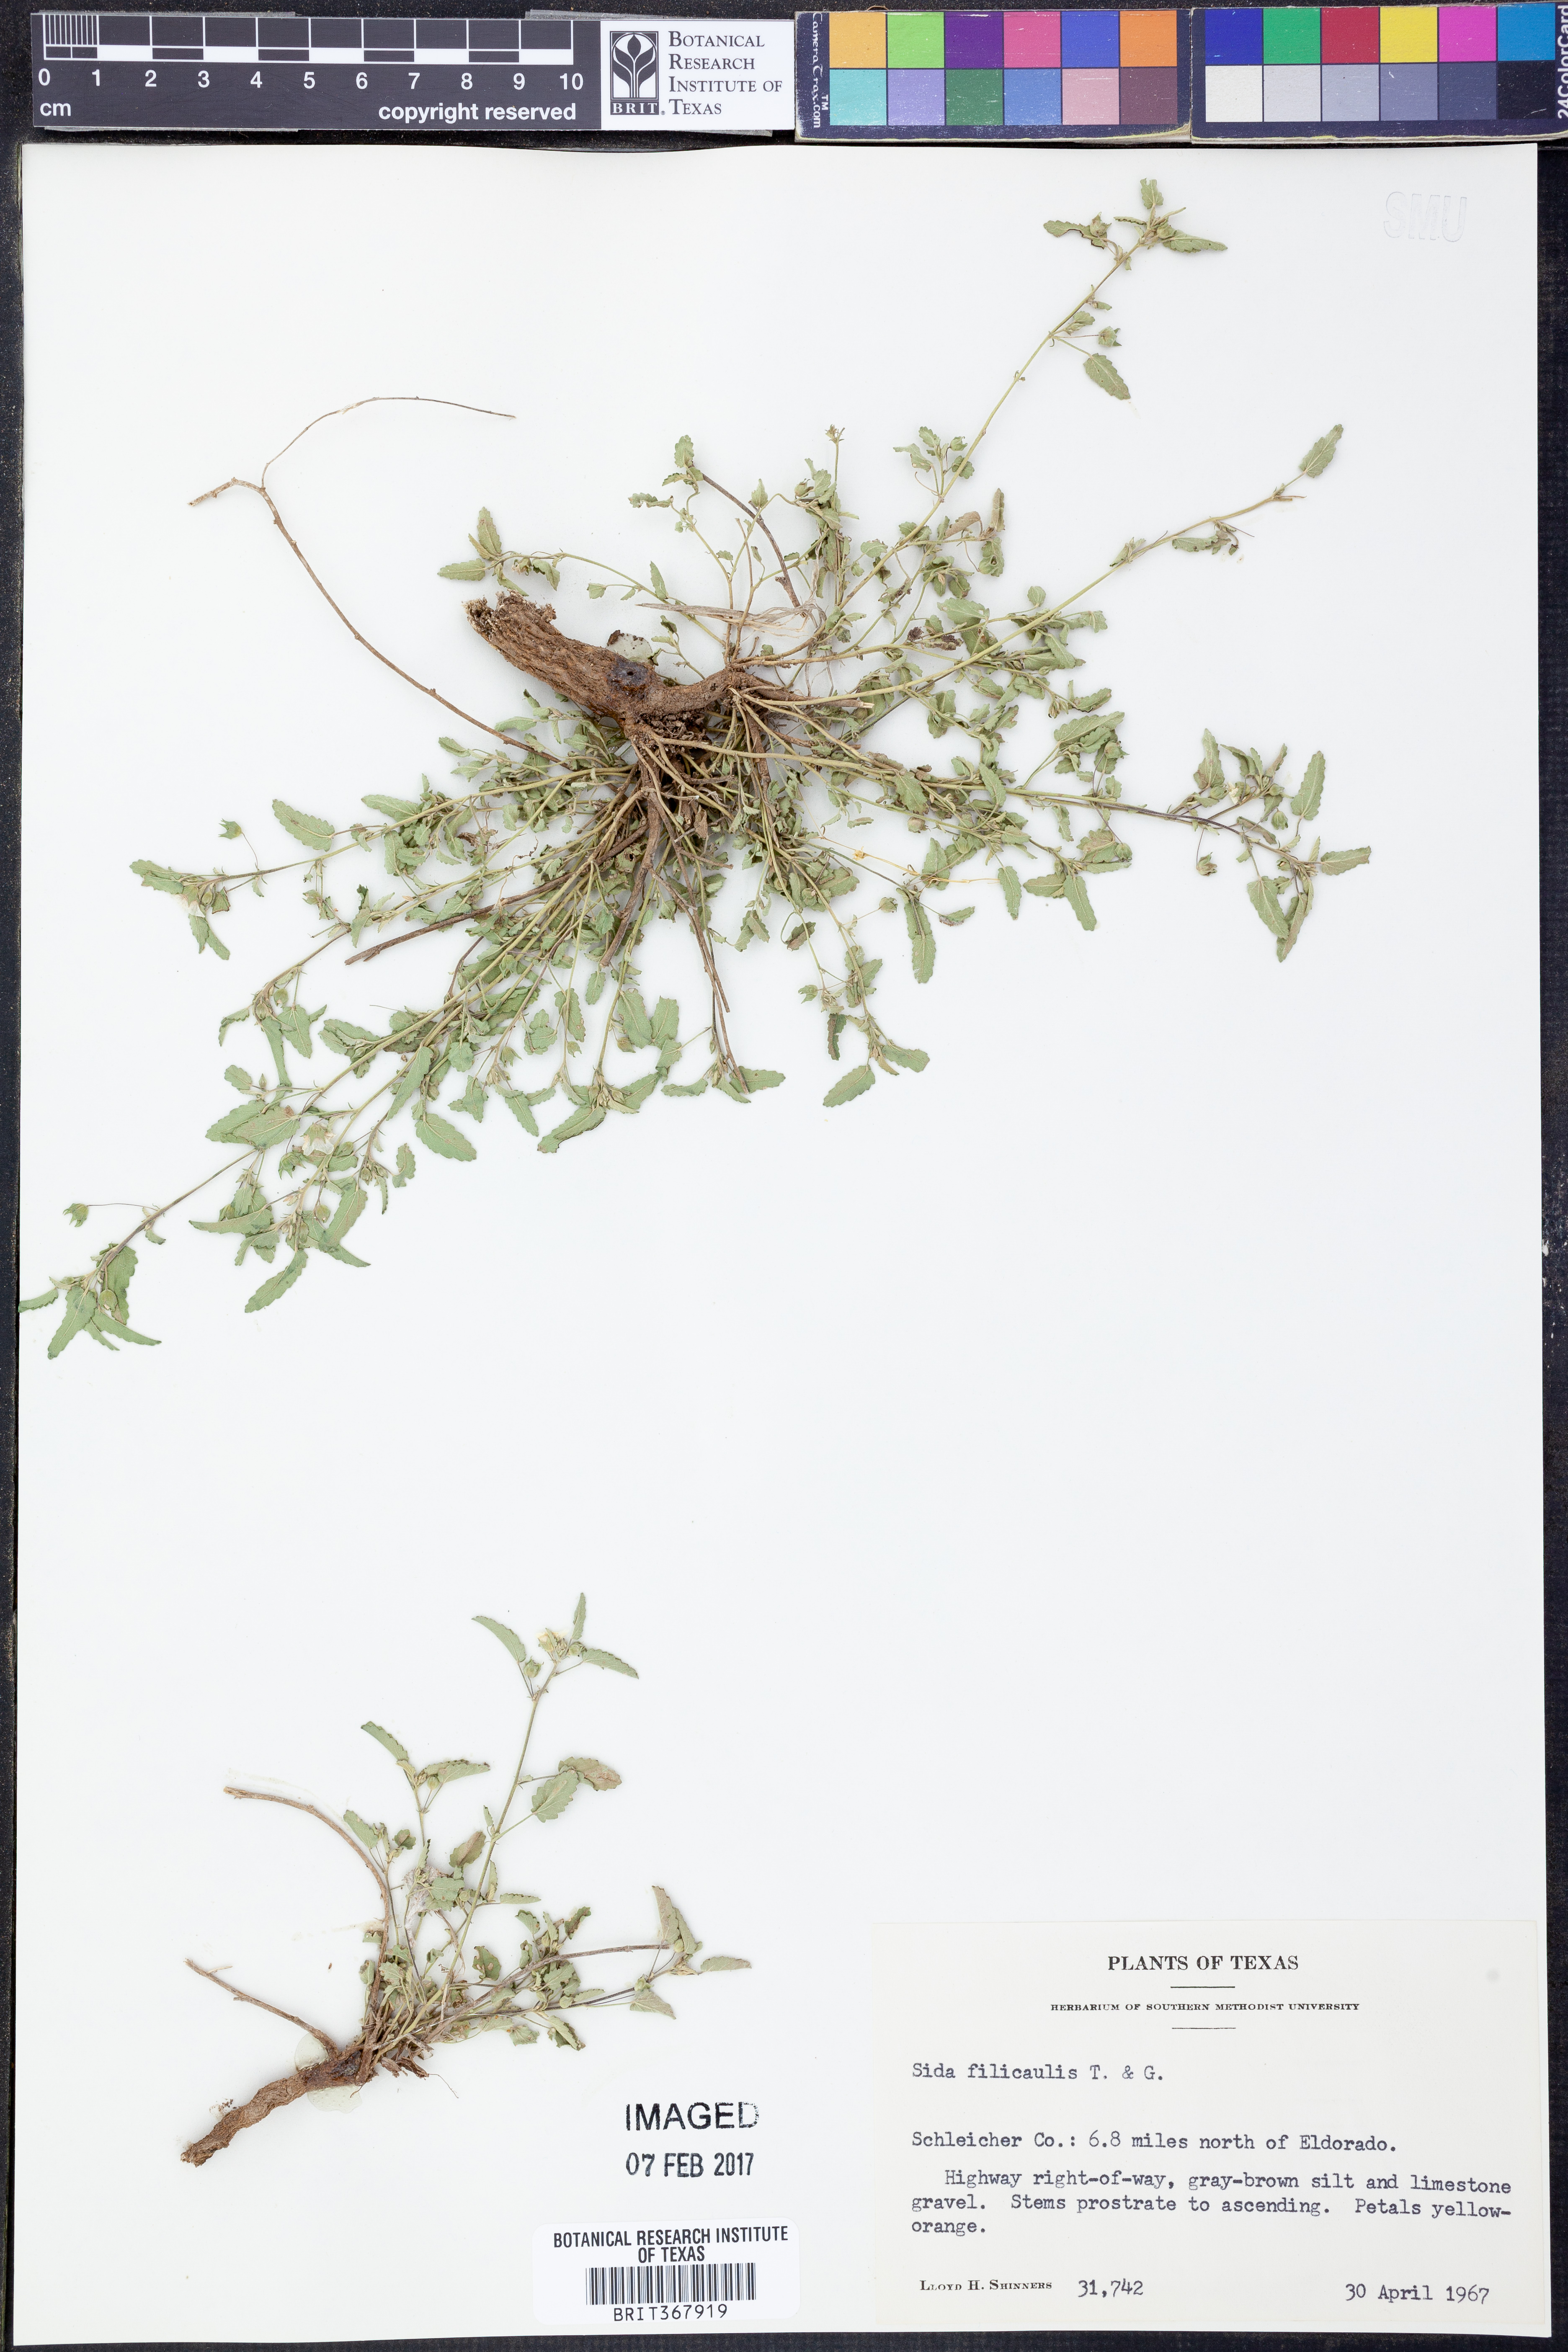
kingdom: Plantae
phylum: Tracheophyta
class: Magnoliopsida
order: Malvales
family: Malvaceae
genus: Sida
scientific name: Sida abutilifolia
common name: Spreading fanpetals
